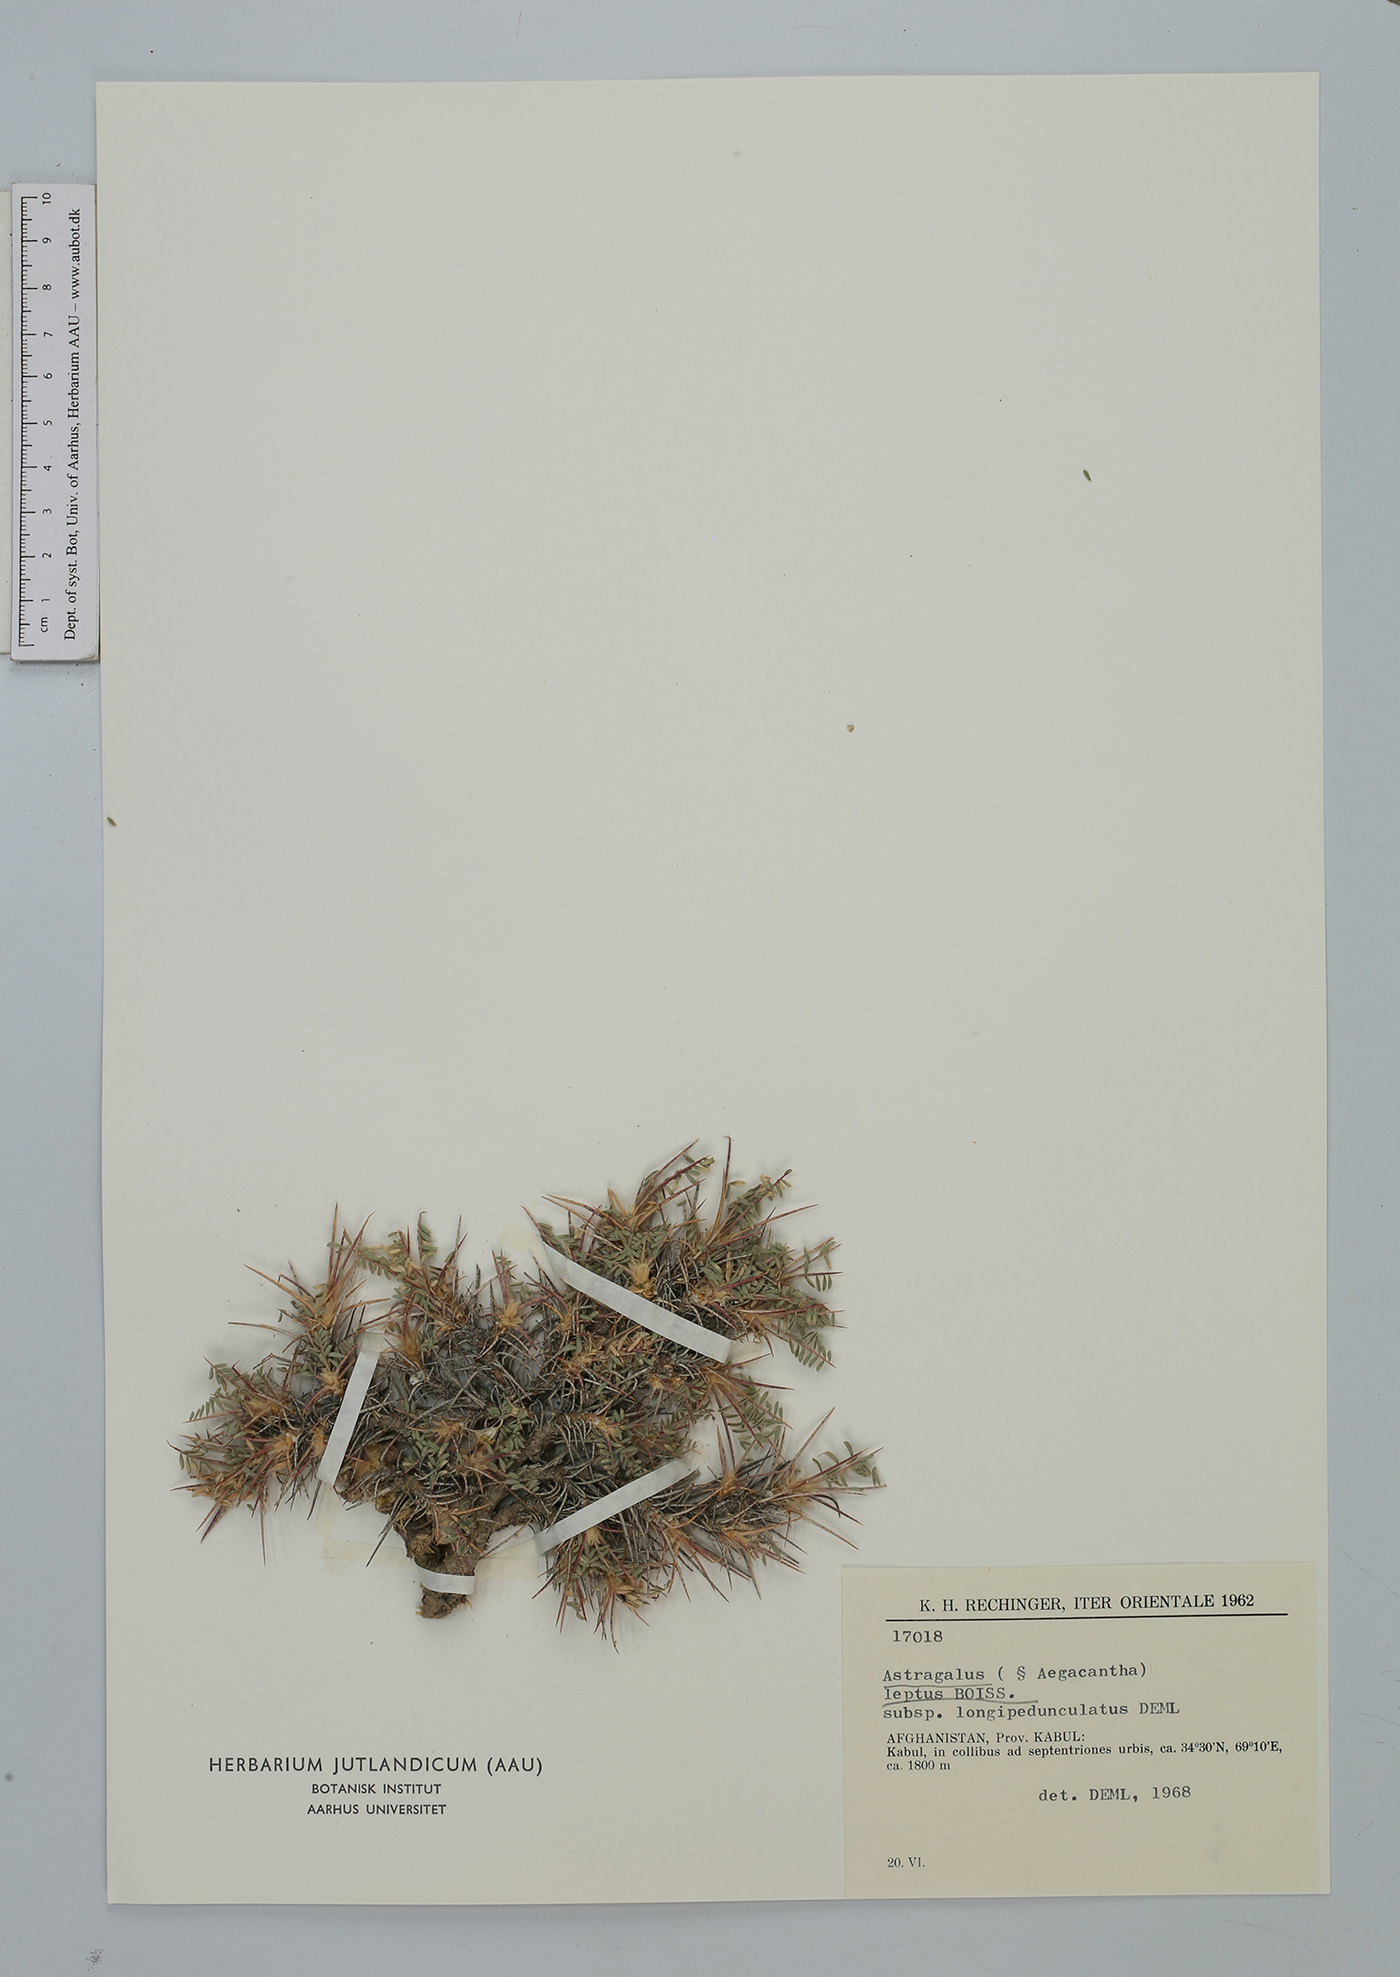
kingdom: Plantae
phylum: Tracheophyta
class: Magnoliopsida
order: Fabales
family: Fabaceae
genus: Astragalus
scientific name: Astragalus leptus
